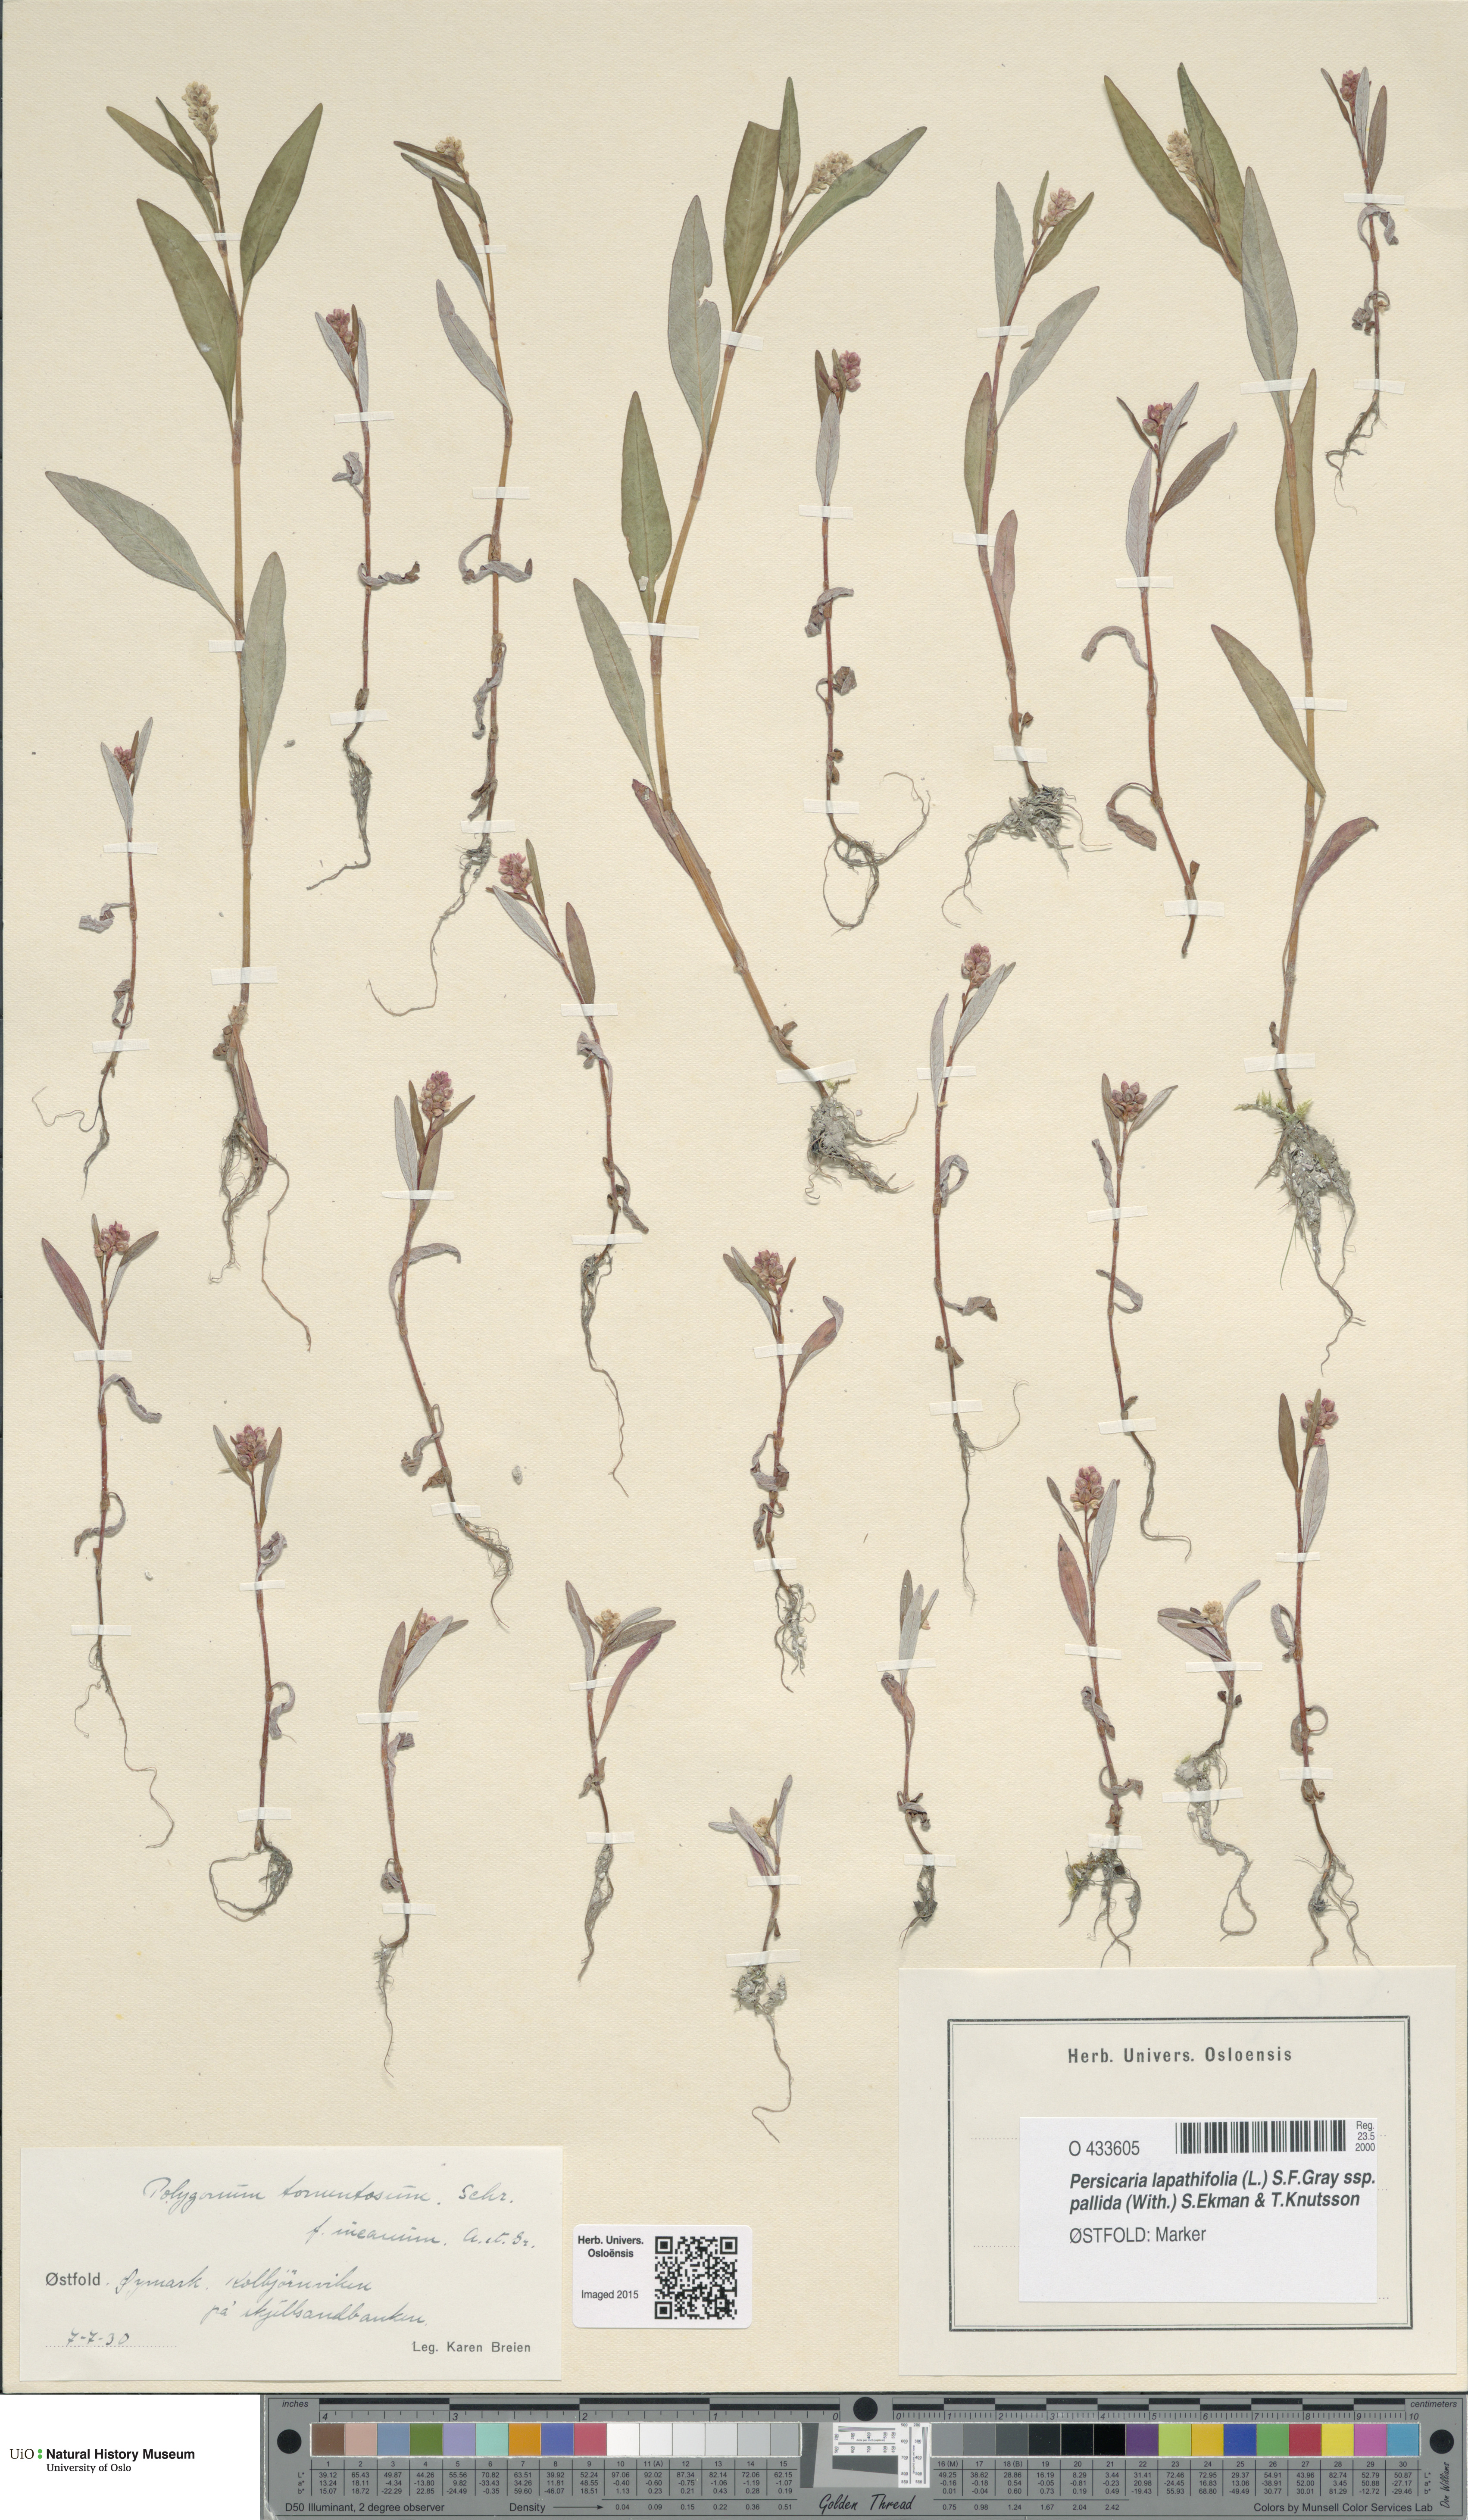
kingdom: Plantae
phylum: Tracheophyta
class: Magnoliopsida
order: Caryophyllales
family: Polygonaceae
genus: Persicaria
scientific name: Persicaria lapathifolia
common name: Curlytop knotweed
